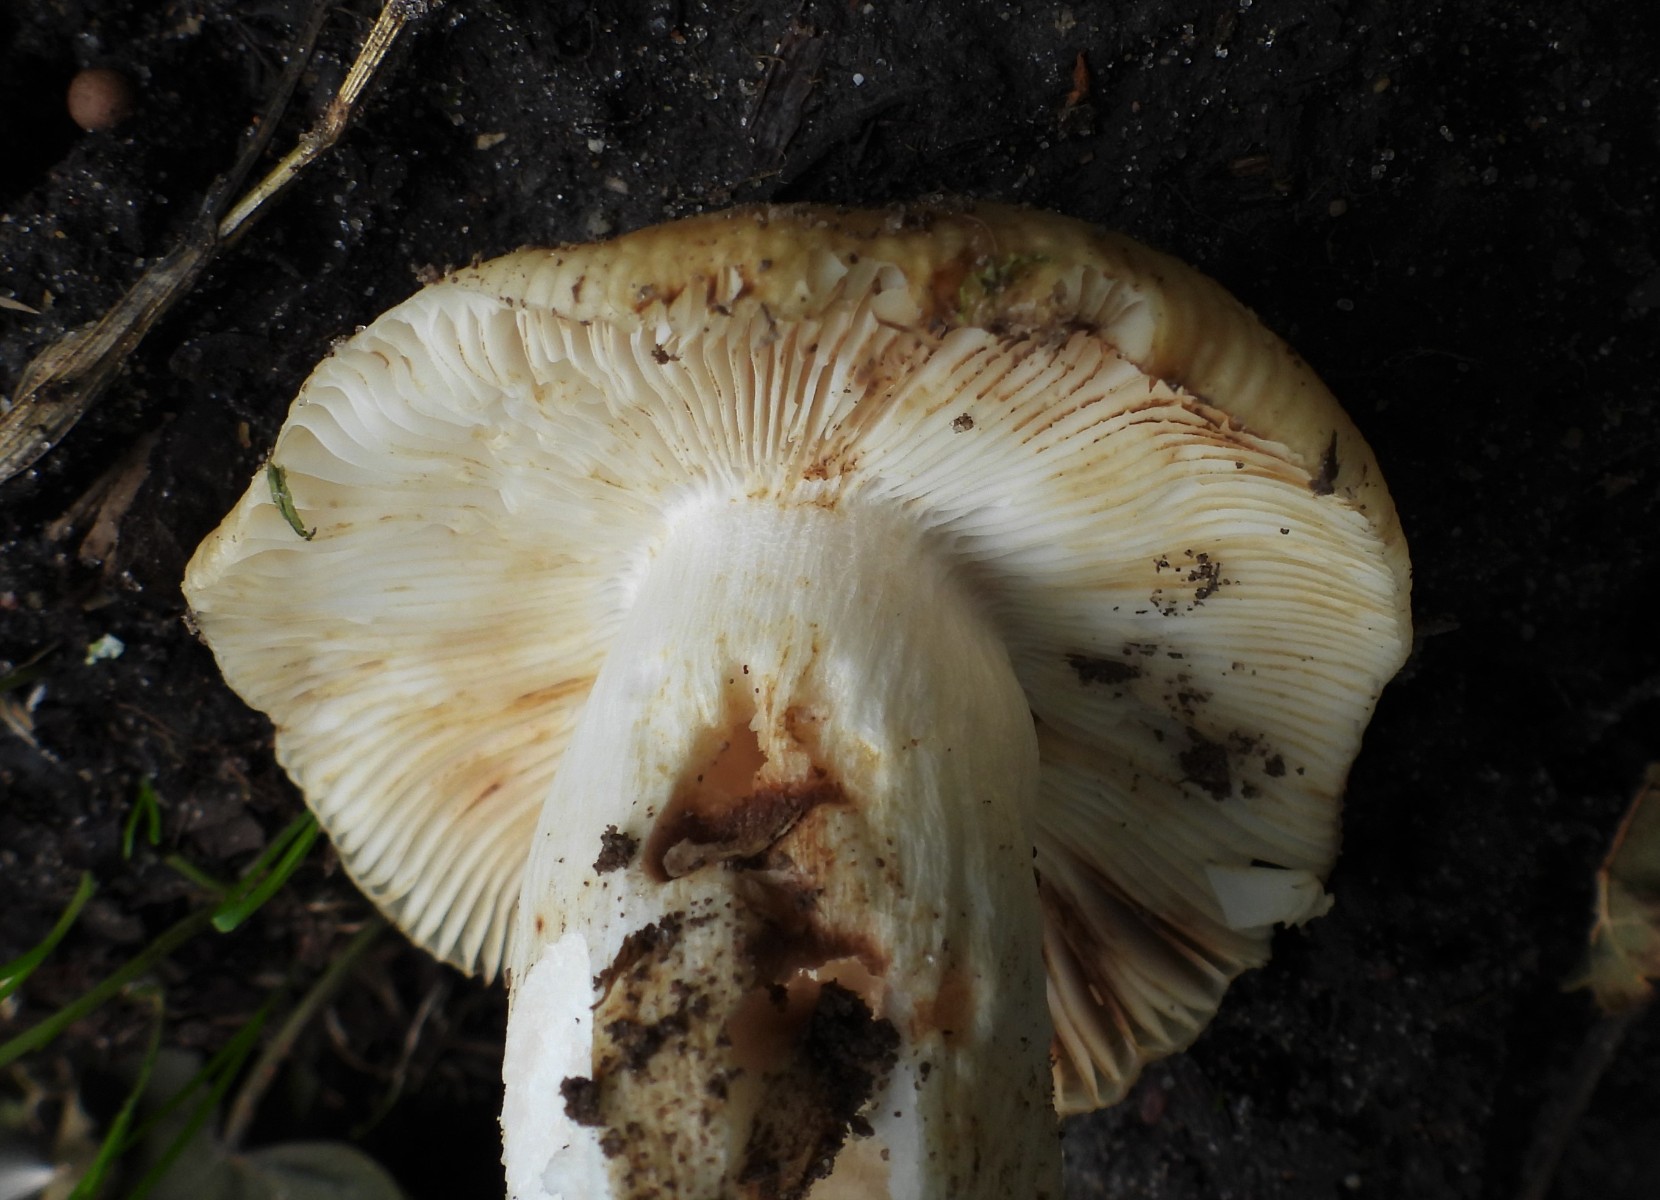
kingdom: Fungi
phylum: Basidiomycota
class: Agaricomycetes
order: Russulales
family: Russulaceae
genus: Russula
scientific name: Russula grata
